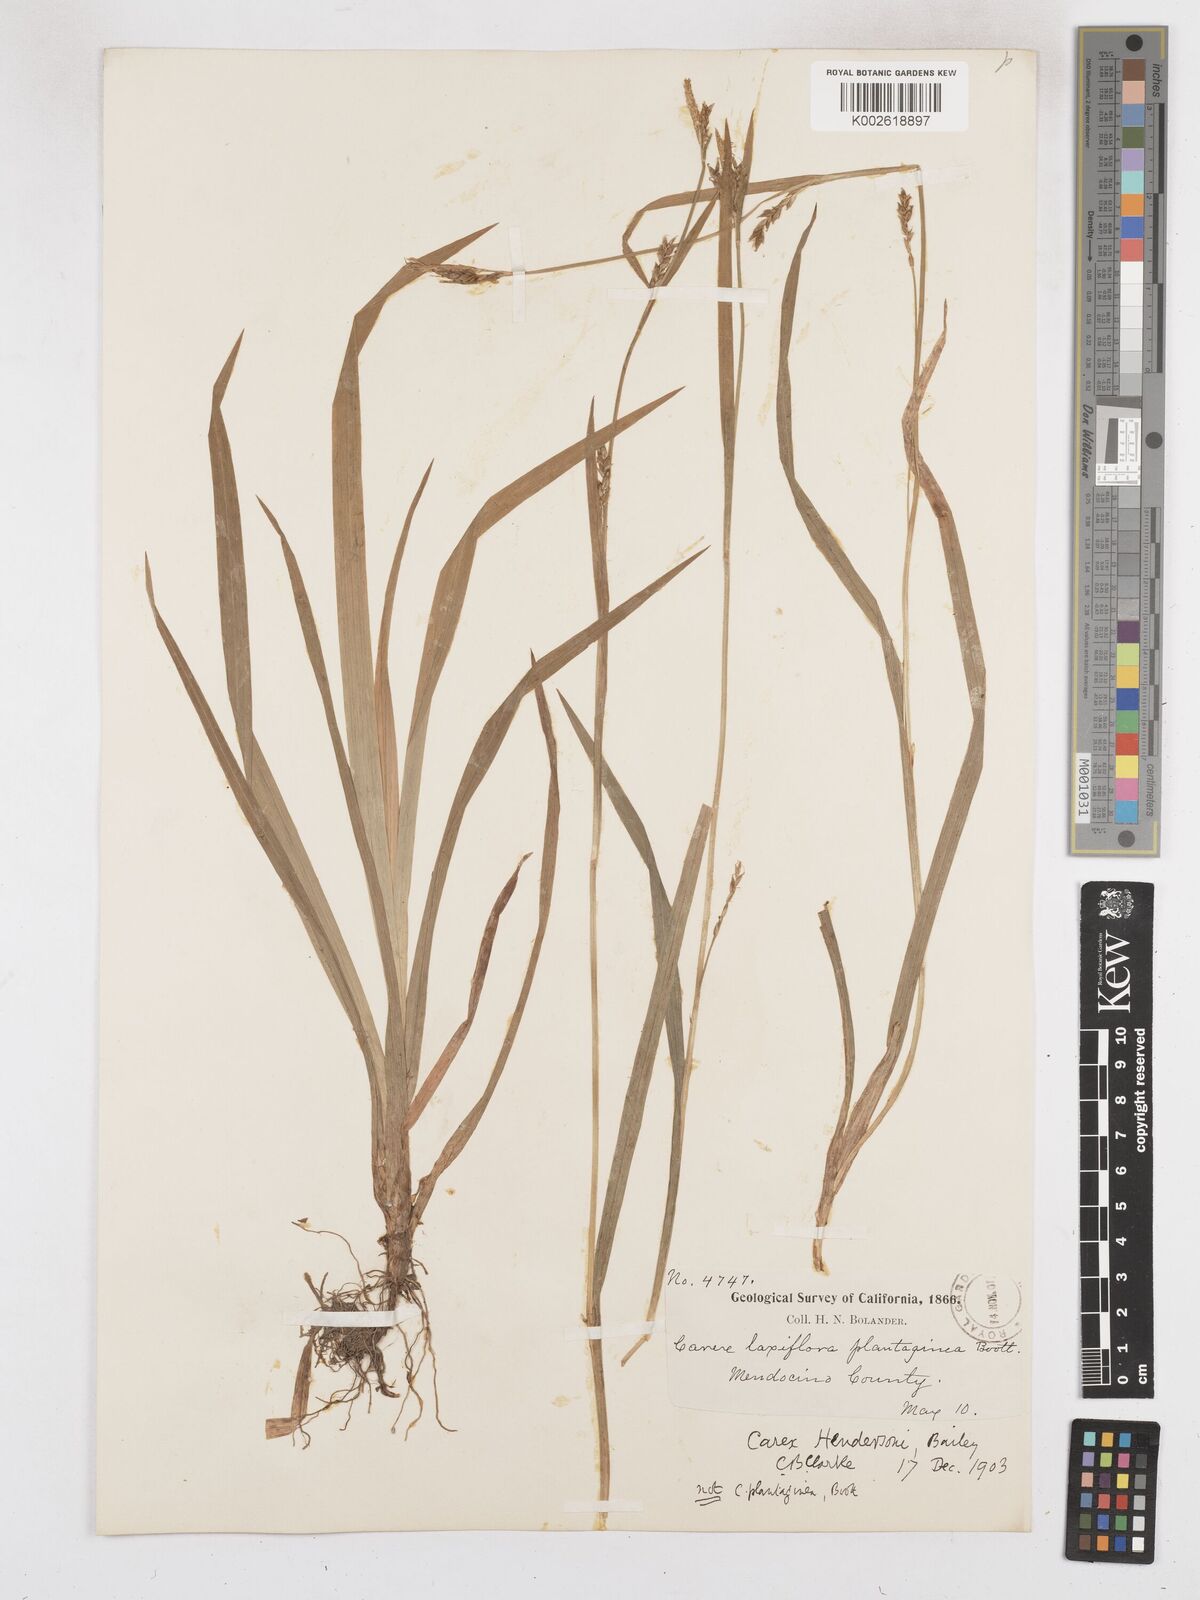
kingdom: Plantae
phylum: Tracheophyta
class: Liliopsida
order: Poales
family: Cyperaceae
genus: Carex
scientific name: Carex hendersonii
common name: Henderson's sedge
